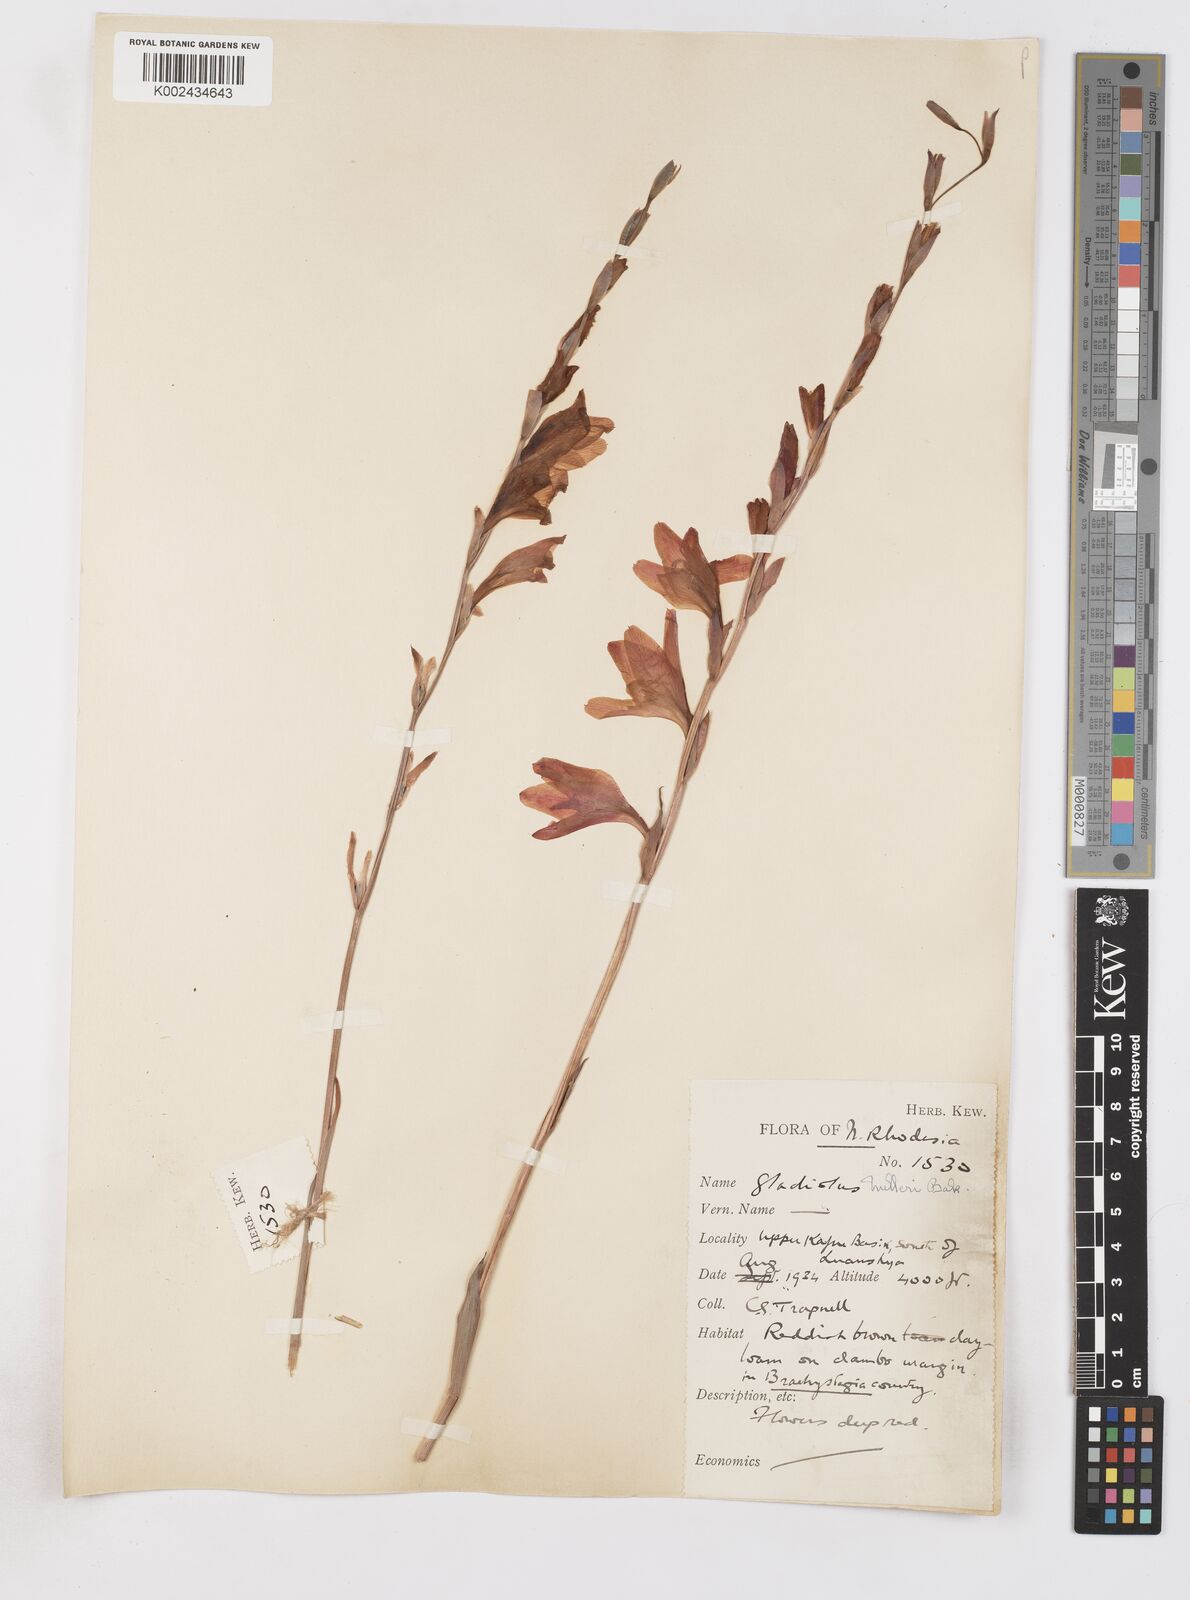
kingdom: Plantae
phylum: Tracheophyta
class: Liliopsida
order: Asparagales
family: Iridaceae
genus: Gladiolus
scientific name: Gladiolus melleri
